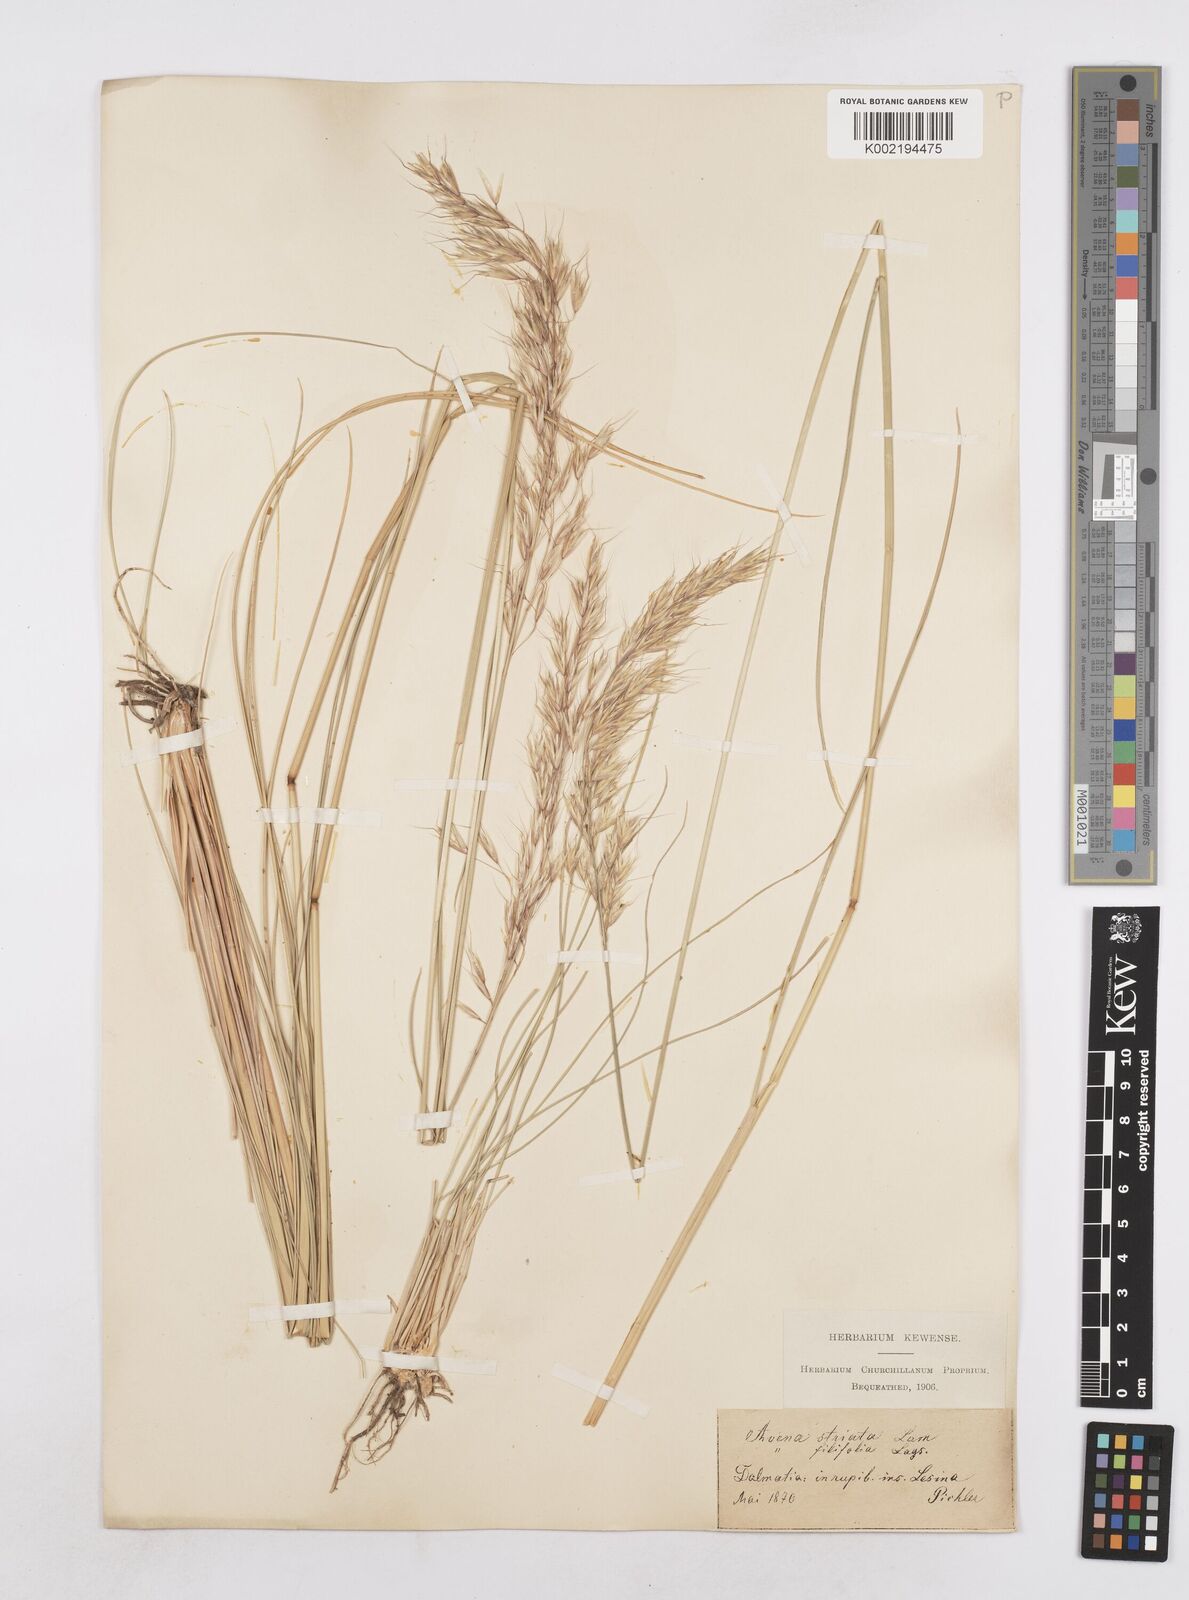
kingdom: Plantae
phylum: Tracheophyta
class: Liliopsida
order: Poales
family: Poaceae
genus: Helictotrichon
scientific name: Helictotrichon convolutum
